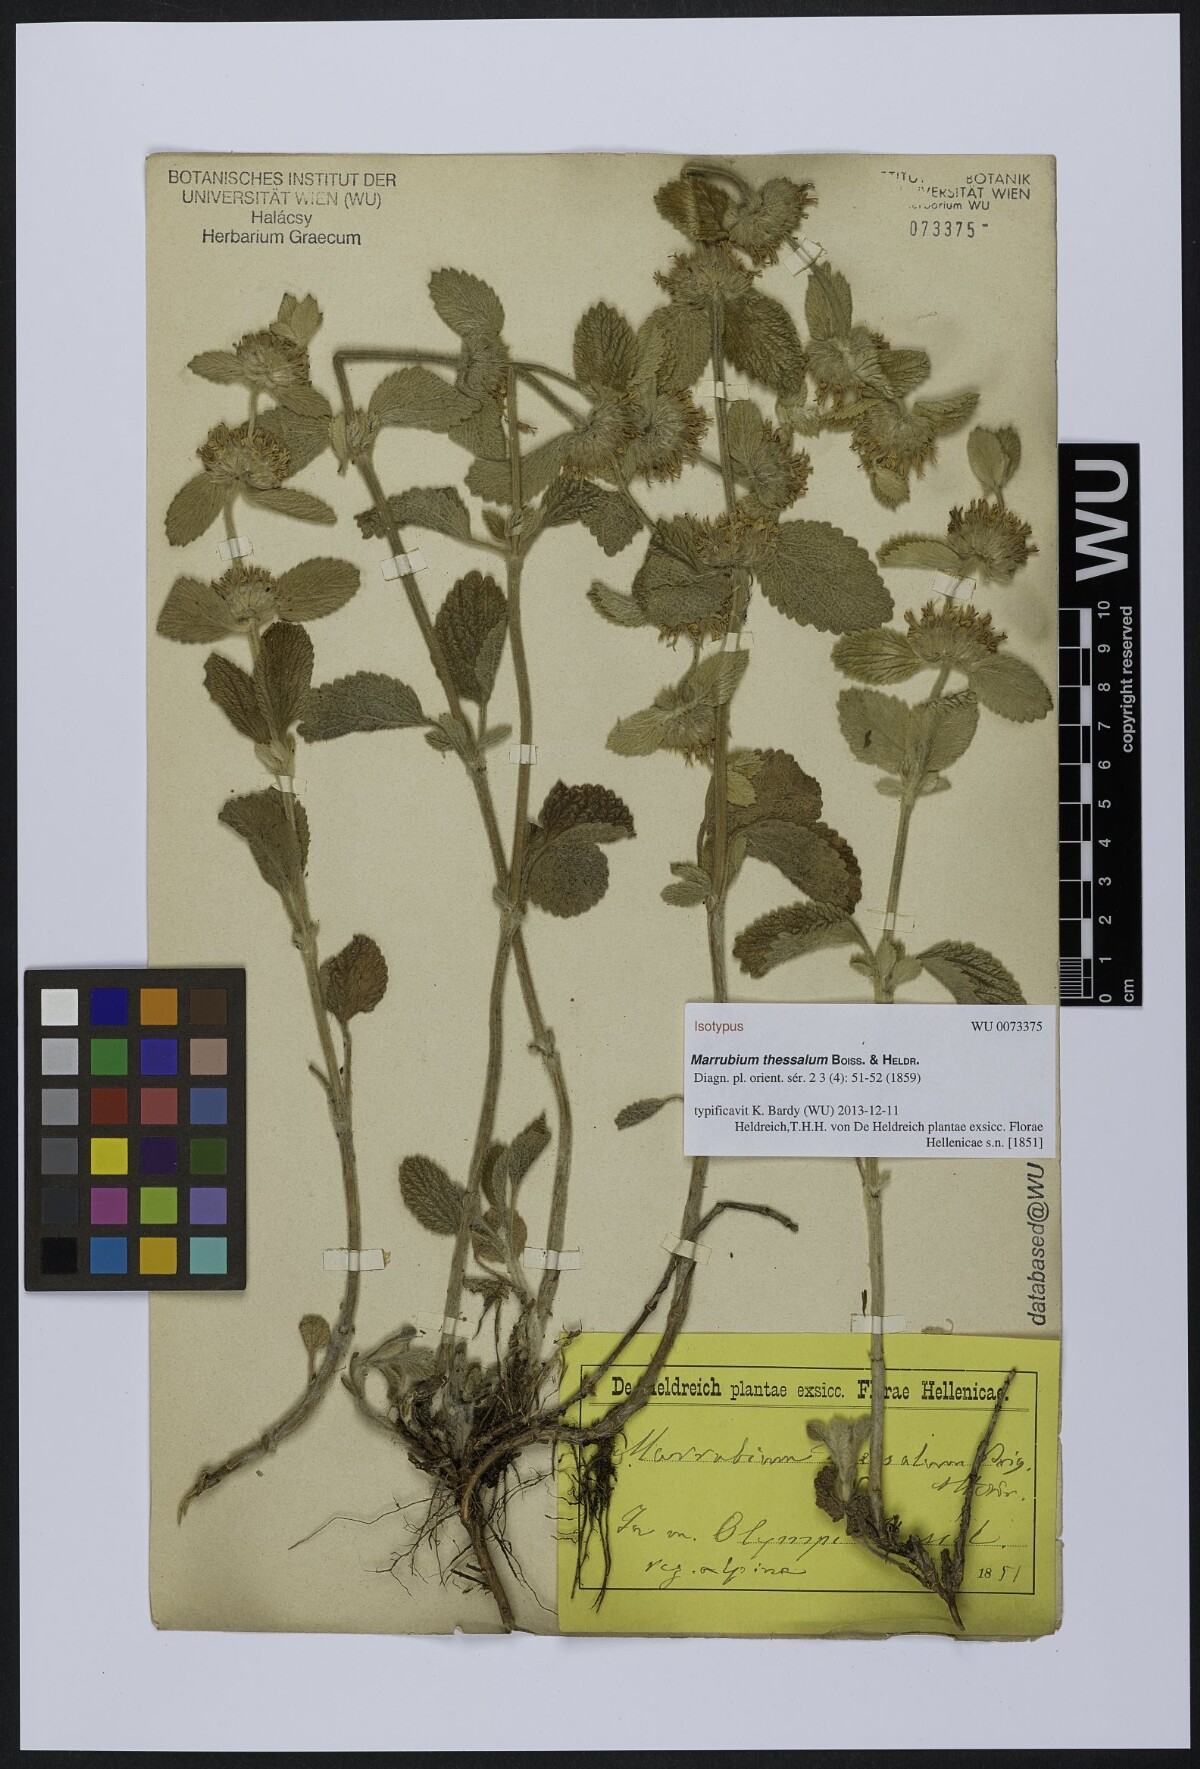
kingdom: Plantae
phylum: Tracheophyta
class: Magnoliopsida
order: Lamiales
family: Lamiaceae
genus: Marrubium
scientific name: Marrubium thessalum
